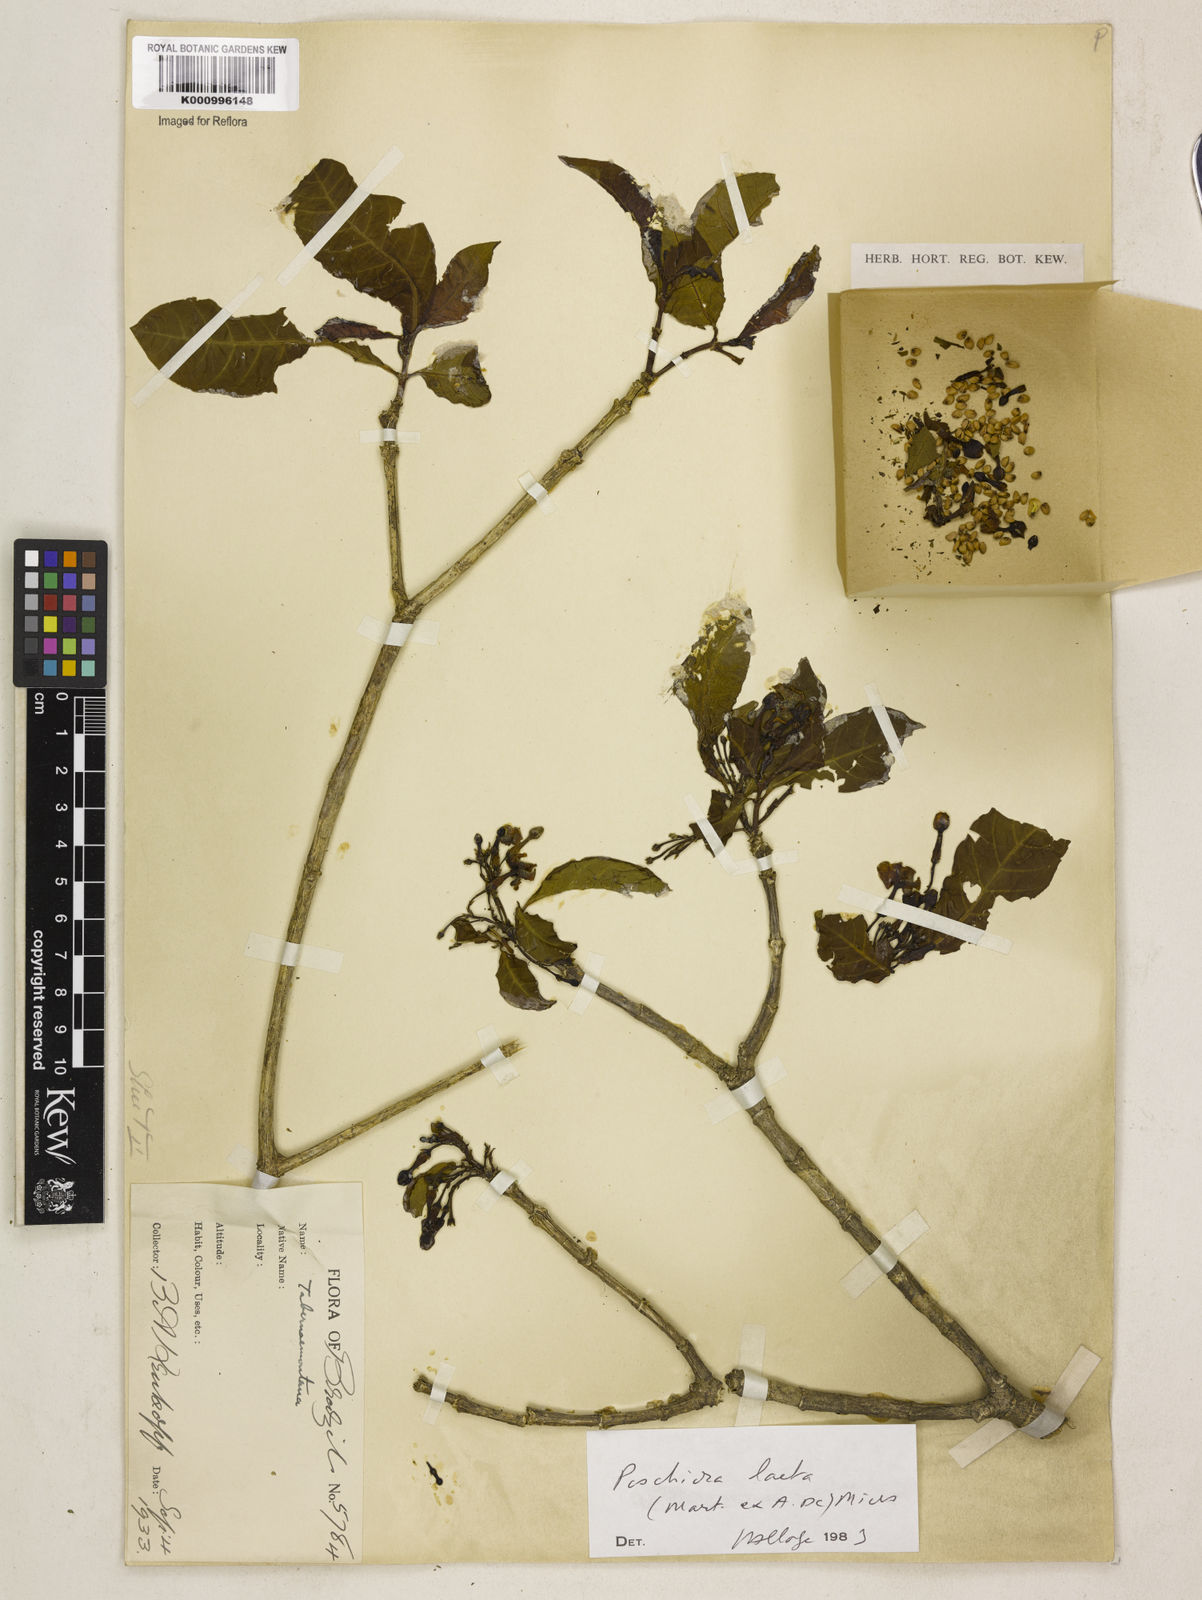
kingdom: Plantae
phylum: Tracheophyta
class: Magnoliopsida
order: Gentianales
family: Apocynaceae
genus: Tabernaemontana
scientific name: Tabernaemontana laeta
